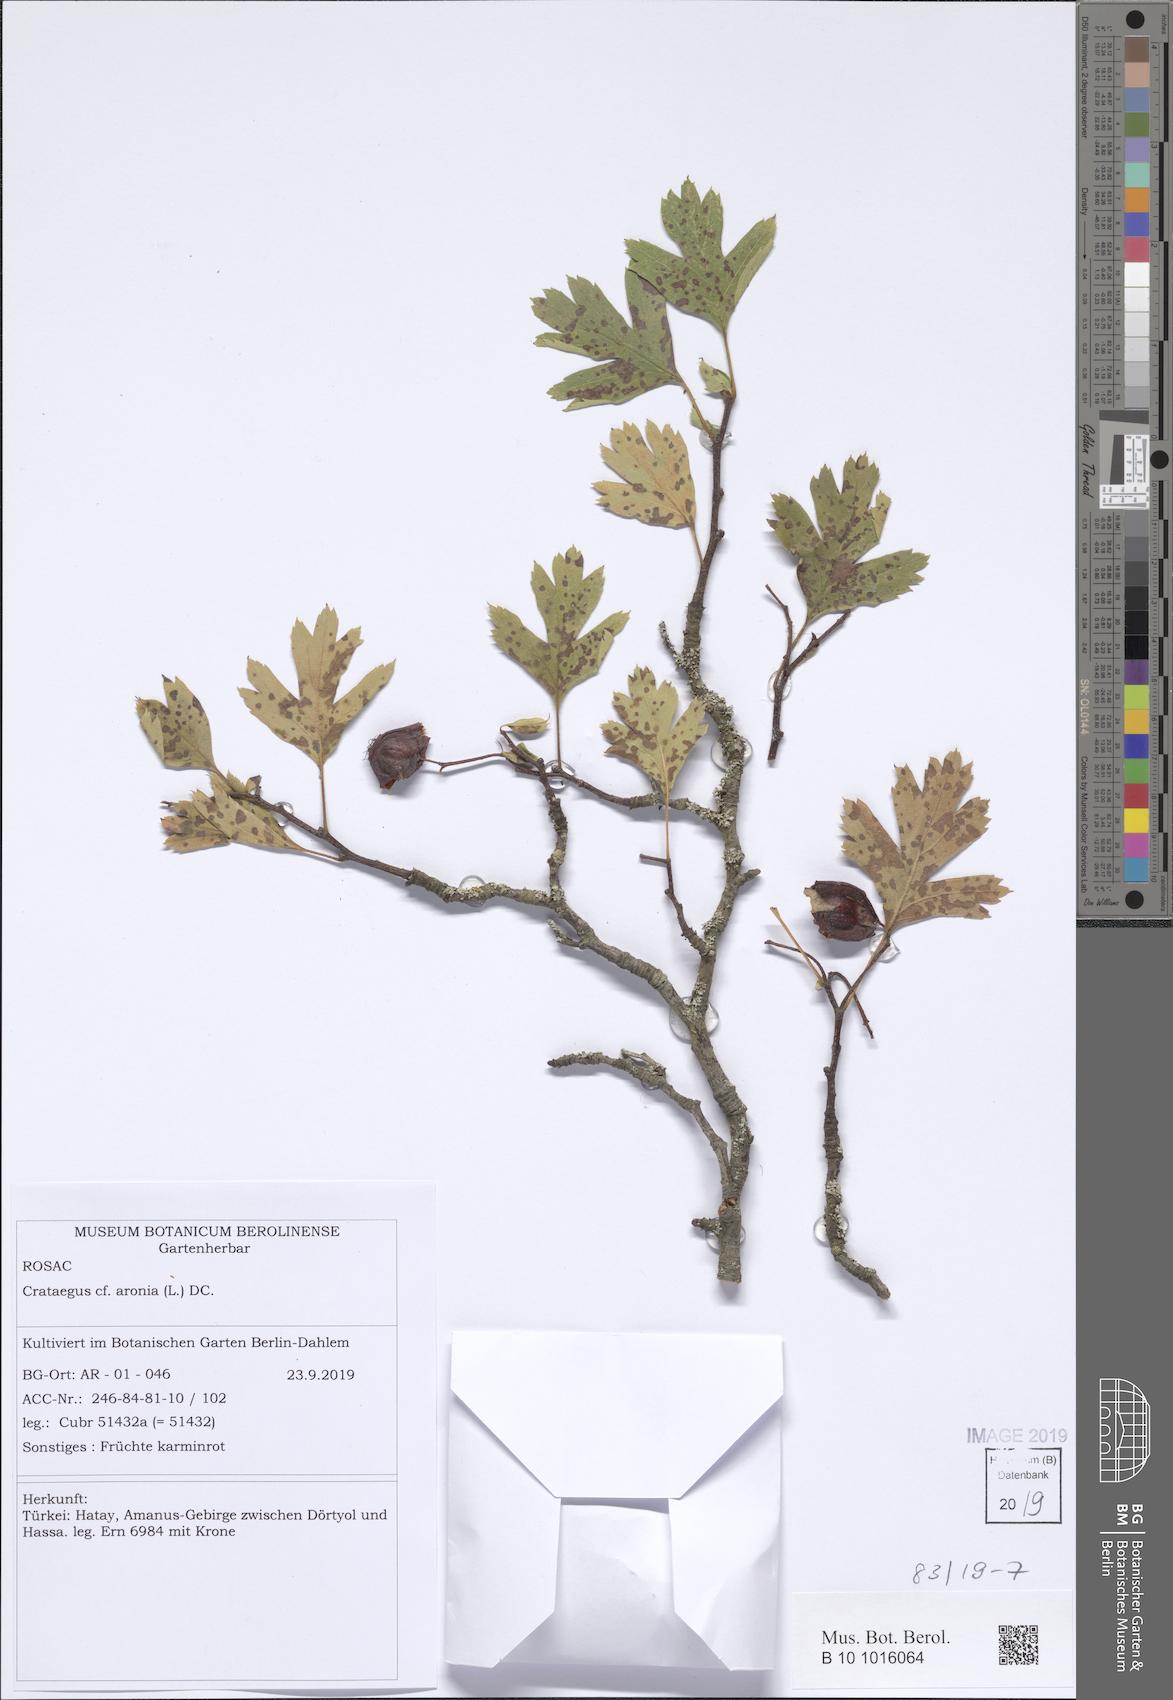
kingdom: Plantae
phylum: Tracheophyta
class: Magnoliopsida
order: Rosales
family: Rosaceae
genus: Crataegus
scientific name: Crataegus azarolus
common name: Azarole
